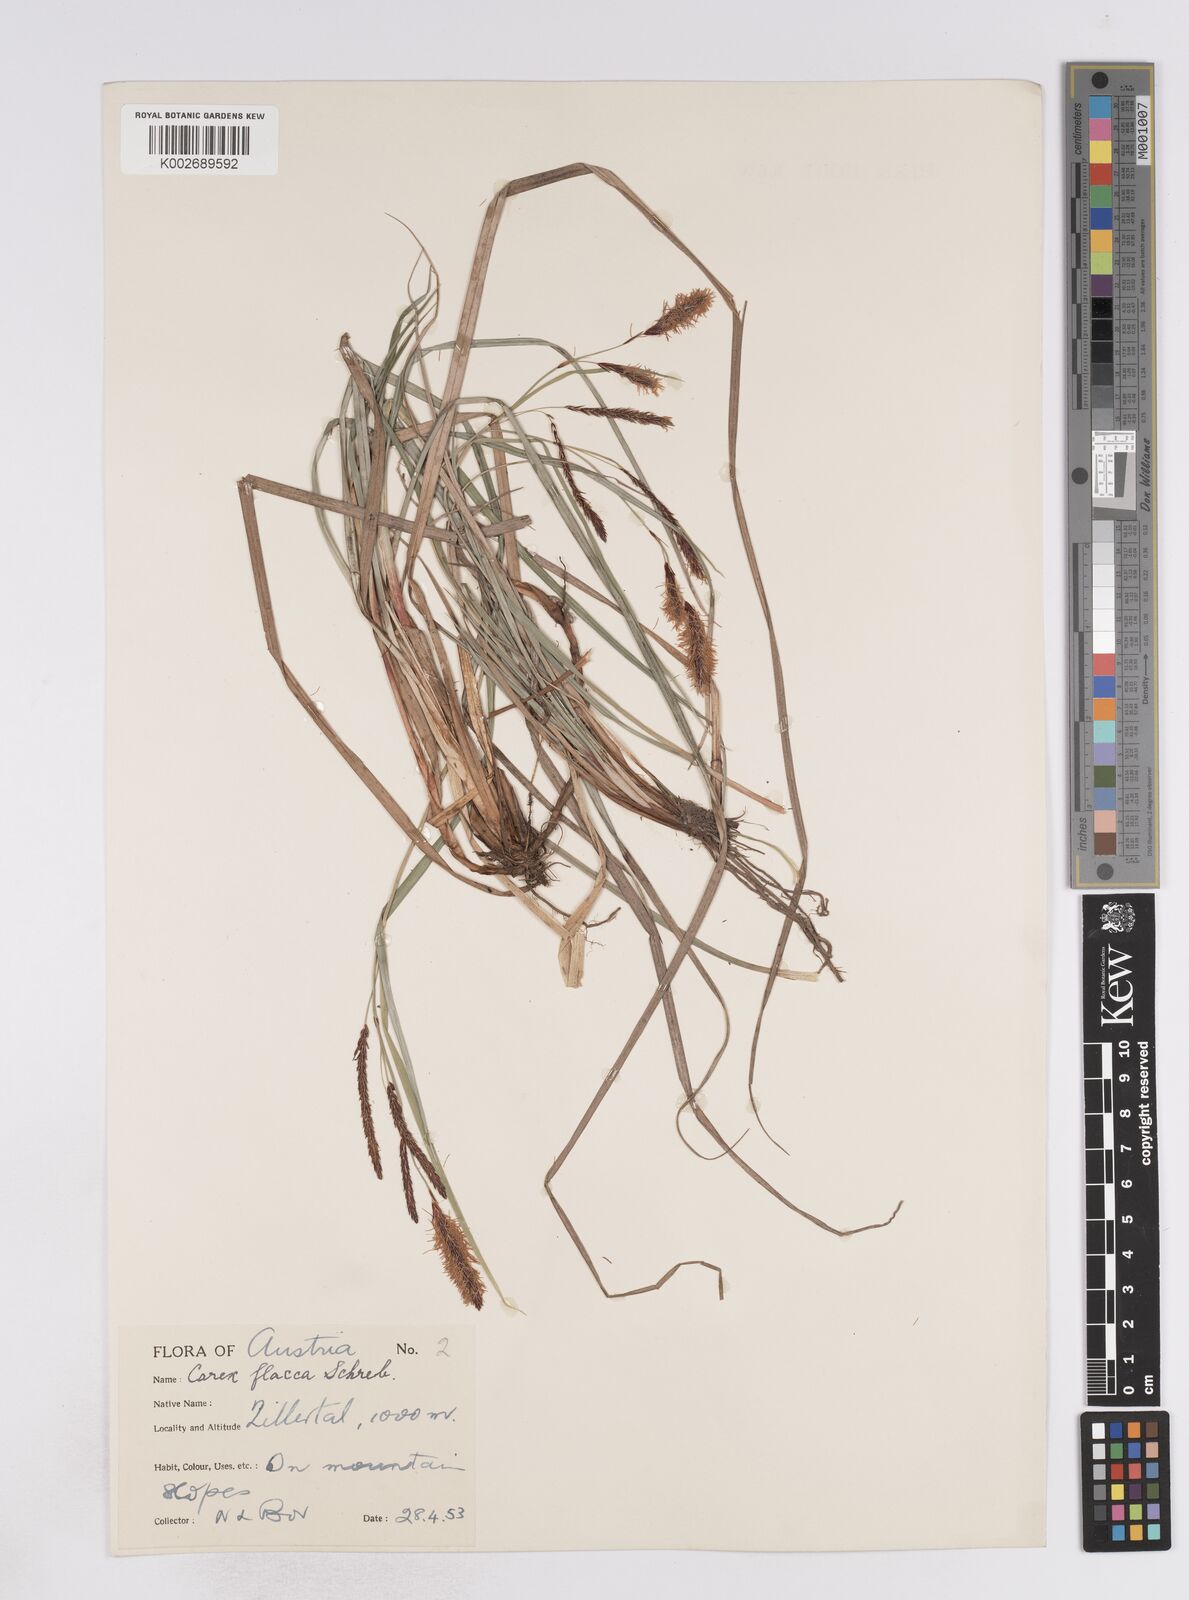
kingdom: Plantae
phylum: Tracheophyta
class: Liliopsida
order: Poales
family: Cyperaceae
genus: Carex
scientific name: Carex flacca
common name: Glaucous sedge
